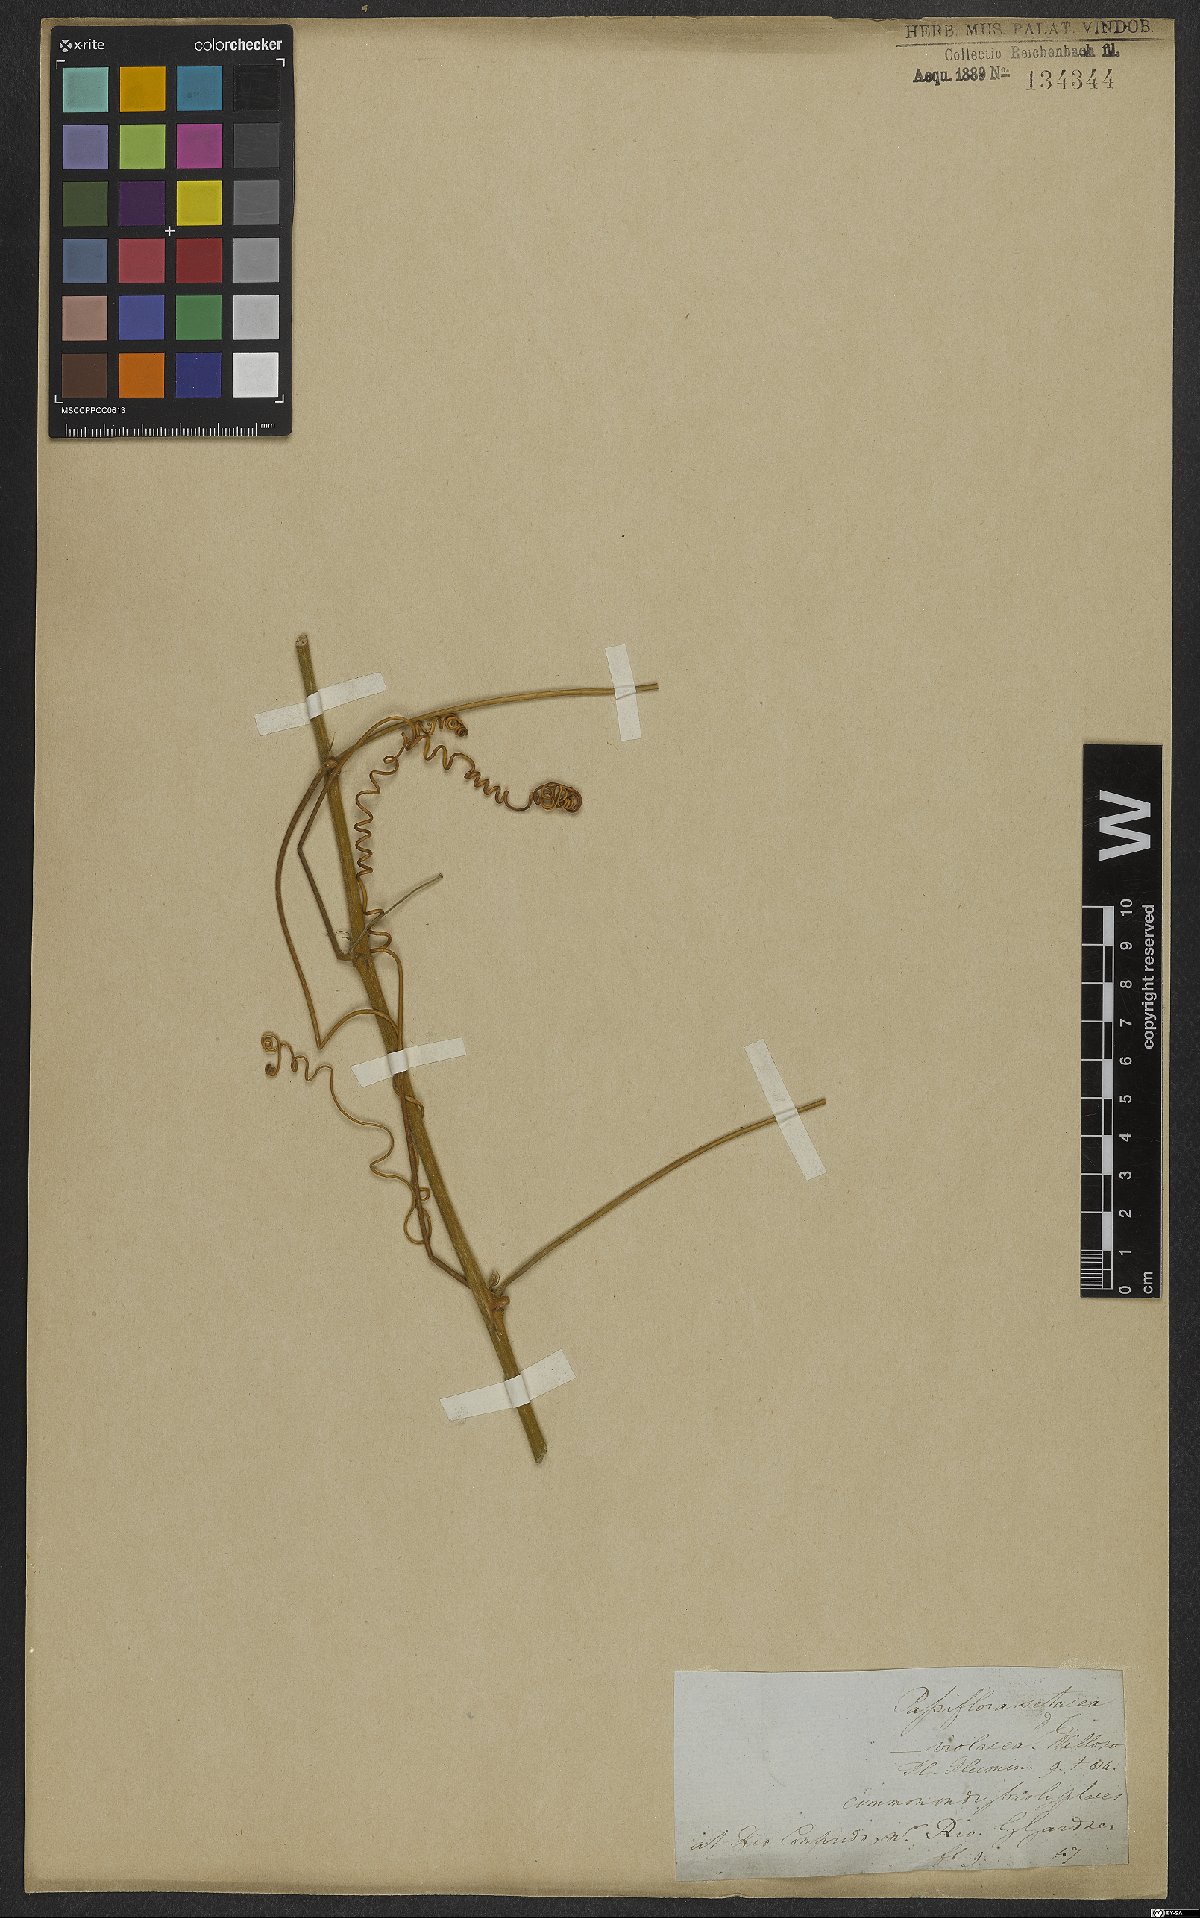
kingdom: Plantae
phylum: Tracheophyta
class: Magnoliopsida
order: Malpighiales
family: Passifloraceae
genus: Passiflora
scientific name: Passiflora setacea
